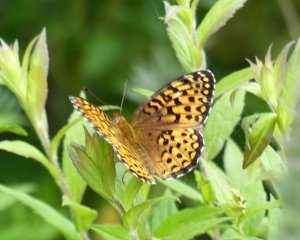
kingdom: Animalia
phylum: Arthropoda
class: Insecta
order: Lepidoptera
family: Nymphalidae
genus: Speyeria
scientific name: Speyeria atlantis
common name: Atlantis Fritillary
